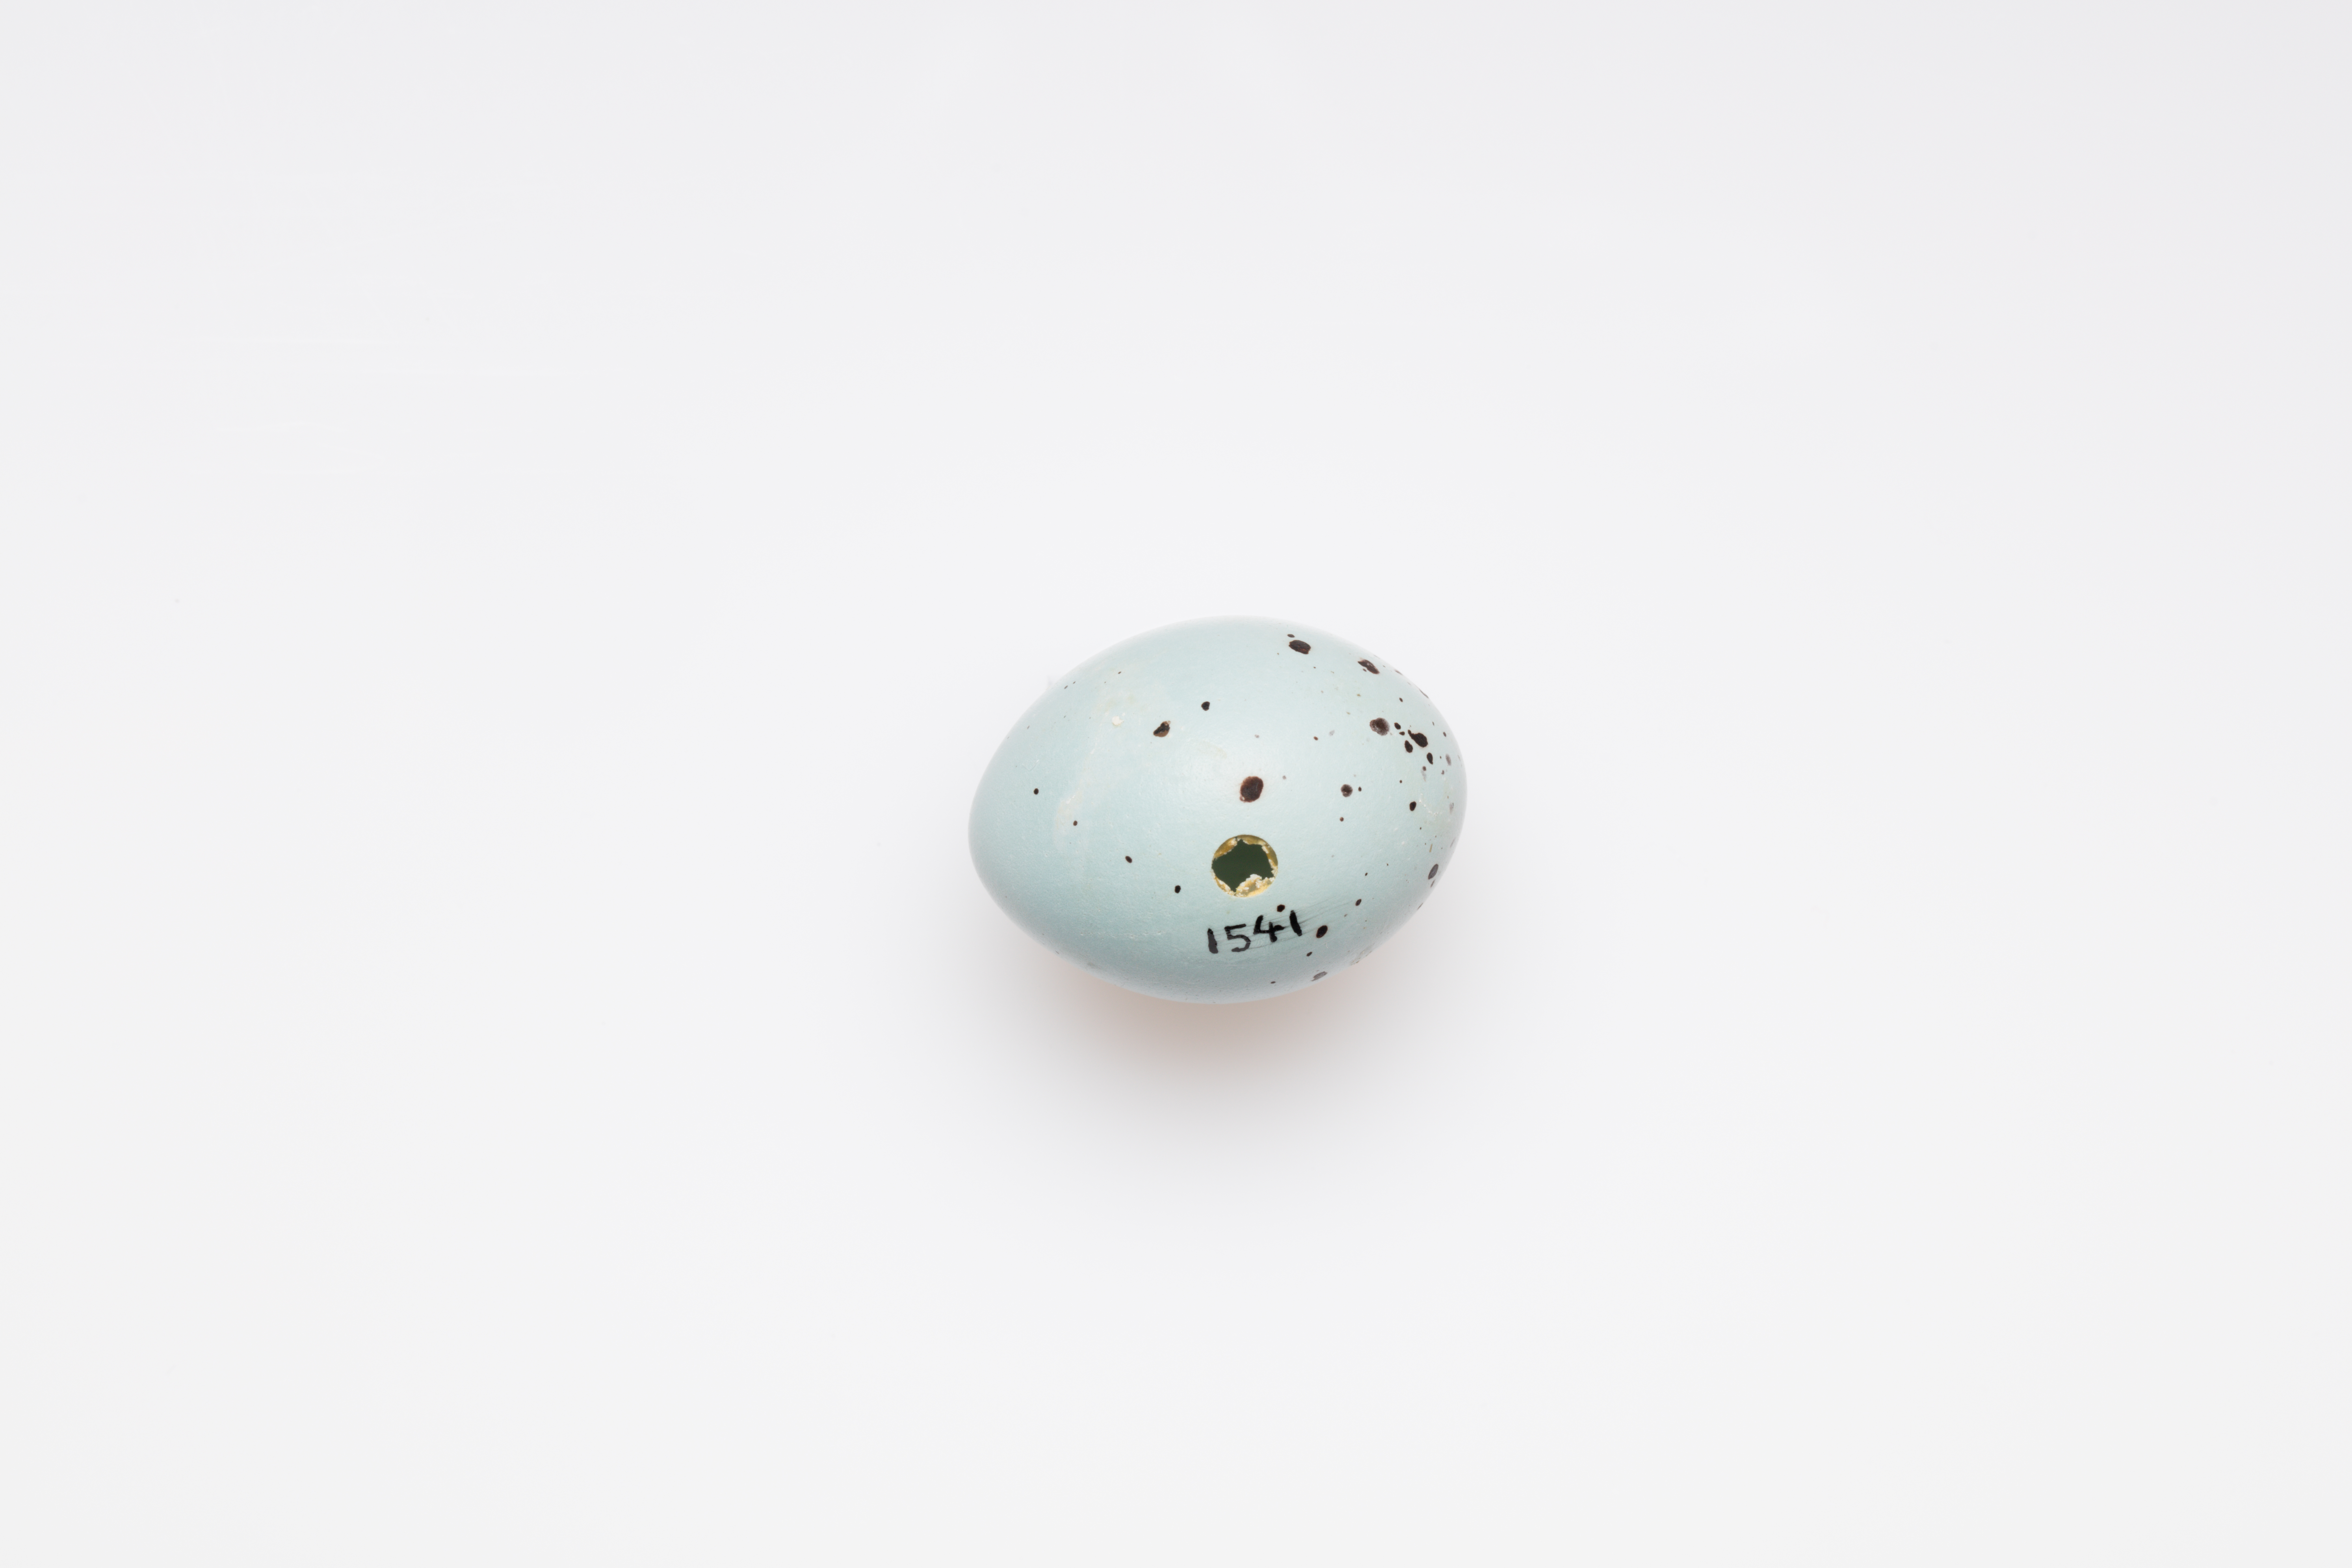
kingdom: Animalia
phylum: Chordata
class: Aves
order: Passeriformes
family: Turdidae
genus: Turdus
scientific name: Turdus philomelos
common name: Song thrush
